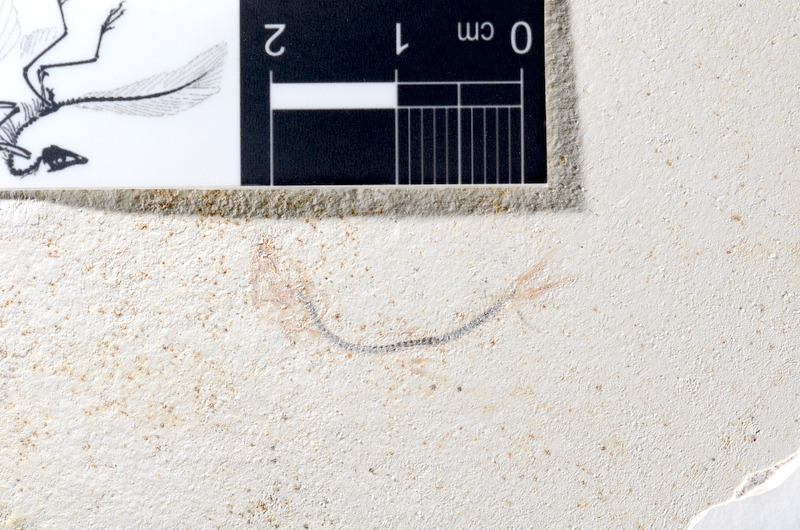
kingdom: Animalia
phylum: Chordata
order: Salmoniformes
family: Orthogonikleithridae
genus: Orthogonikleithrus
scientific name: Orthogonikleithrus hoelli
